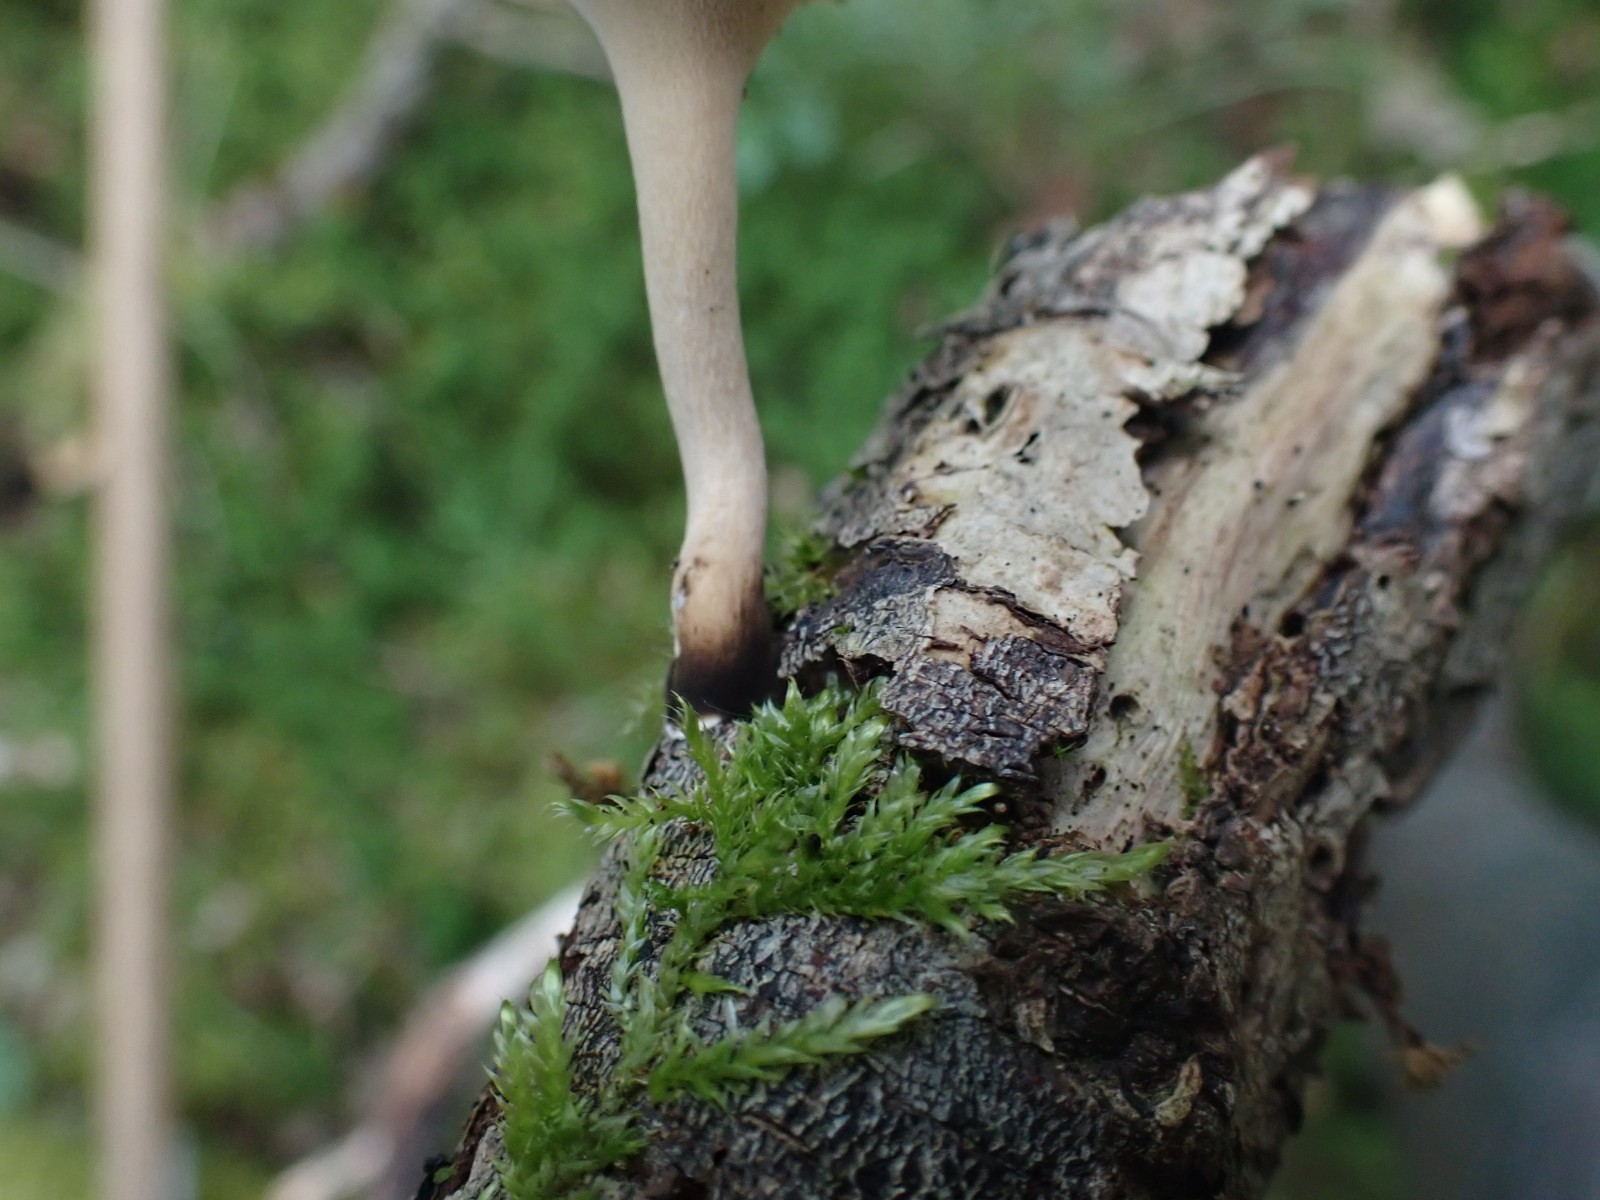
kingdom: Fungi
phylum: Basidiomycota
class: Agaricomycetes
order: Polyporales
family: Polyporaceae
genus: Cerioporus
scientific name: Cerioporus varius
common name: foranderlig stilkporesvamp
